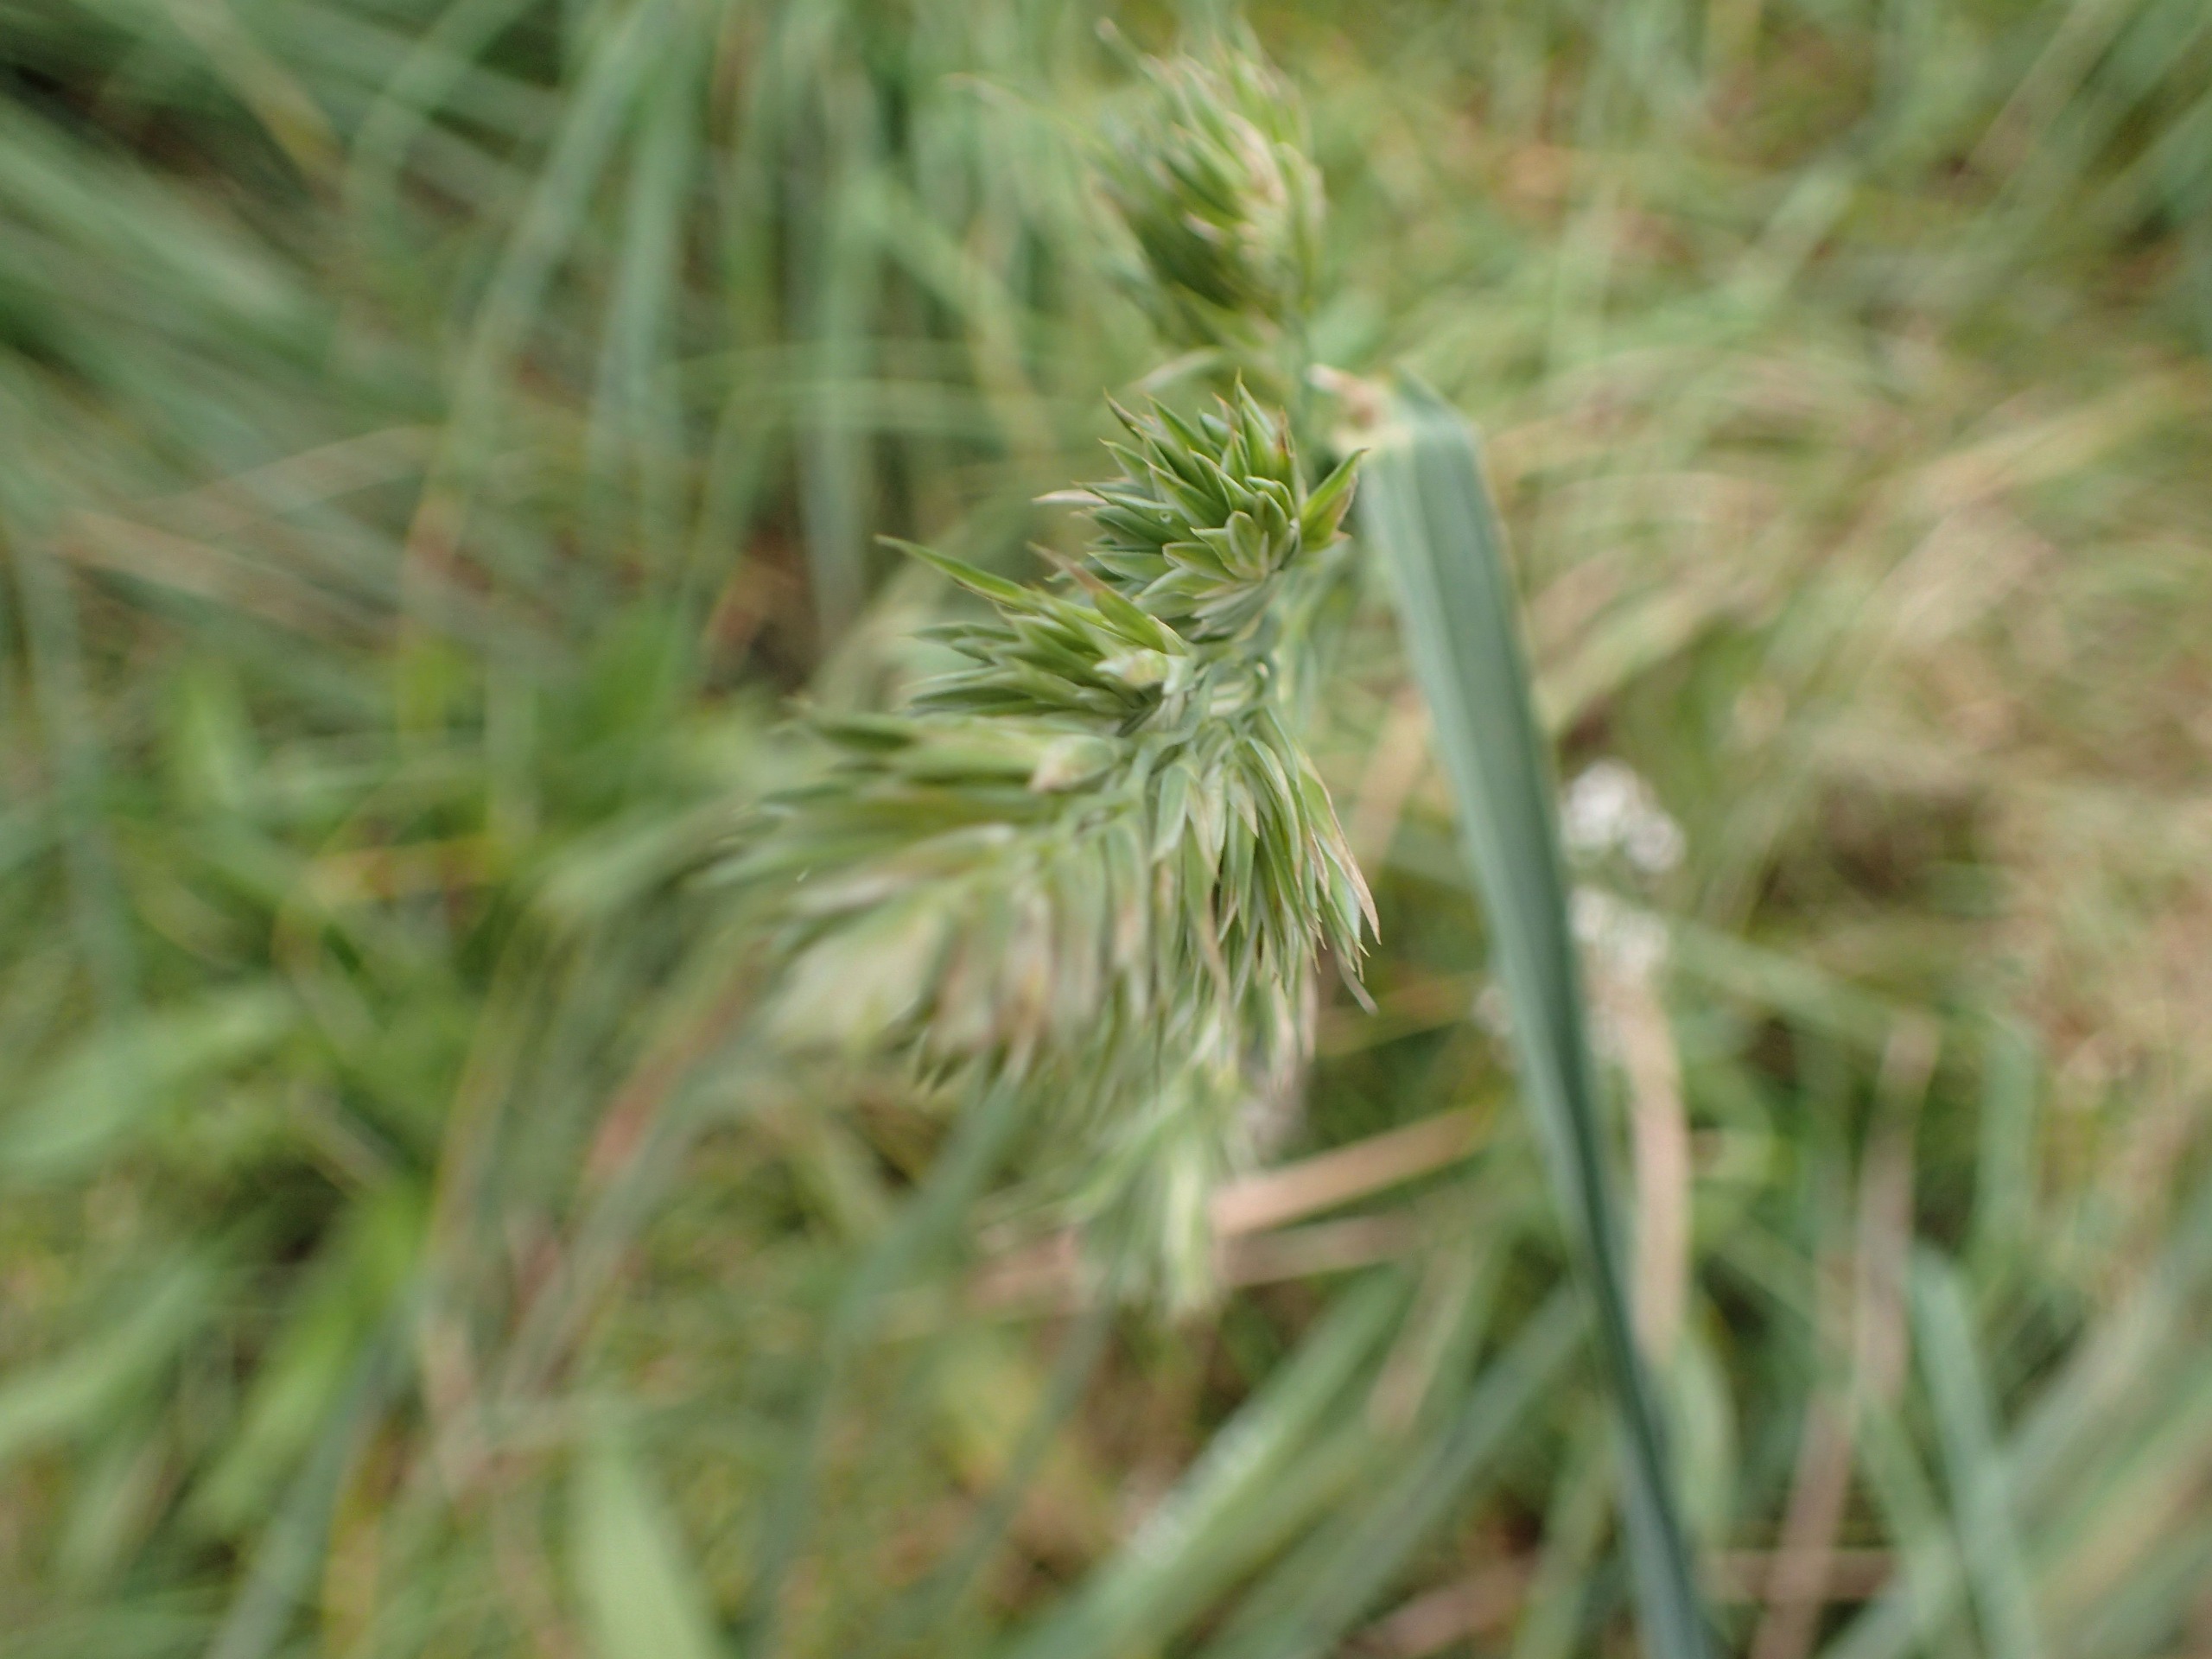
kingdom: Plantae
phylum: Tracheophyta
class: Liliopsida
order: Poales
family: Poaceae
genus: Dactylis
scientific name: Dactylis glomerata
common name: Almindelig hundegræs
